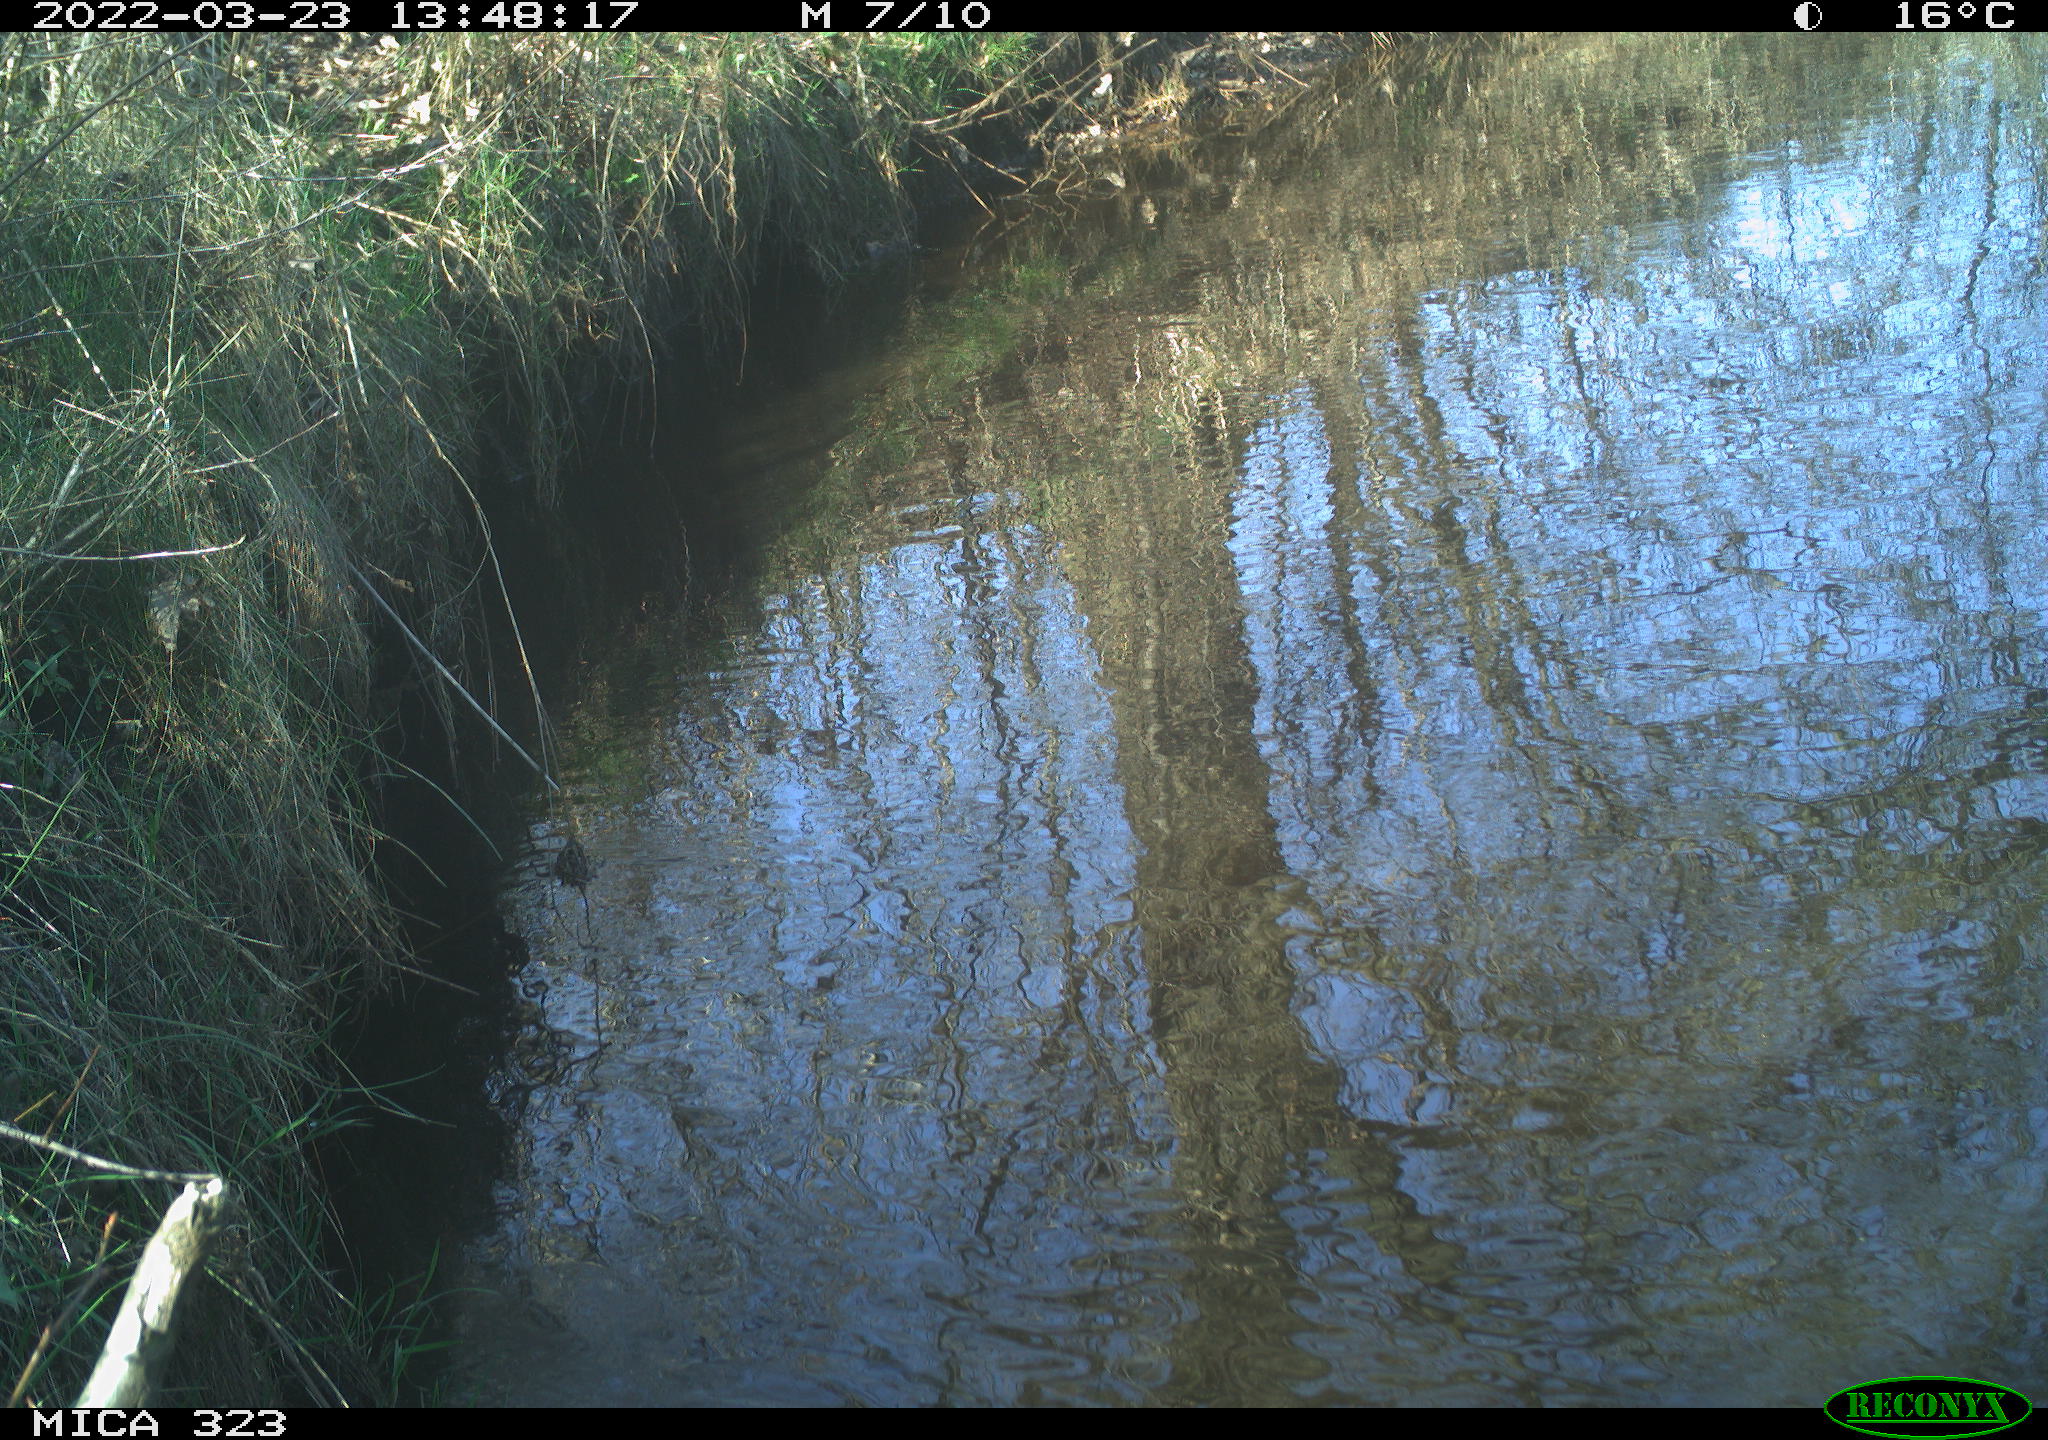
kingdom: Animalia
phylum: Chordata
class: Aves
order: Anseriformes
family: Anatidae
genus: Anas
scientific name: Anas platyrhynchos
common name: Mallard
